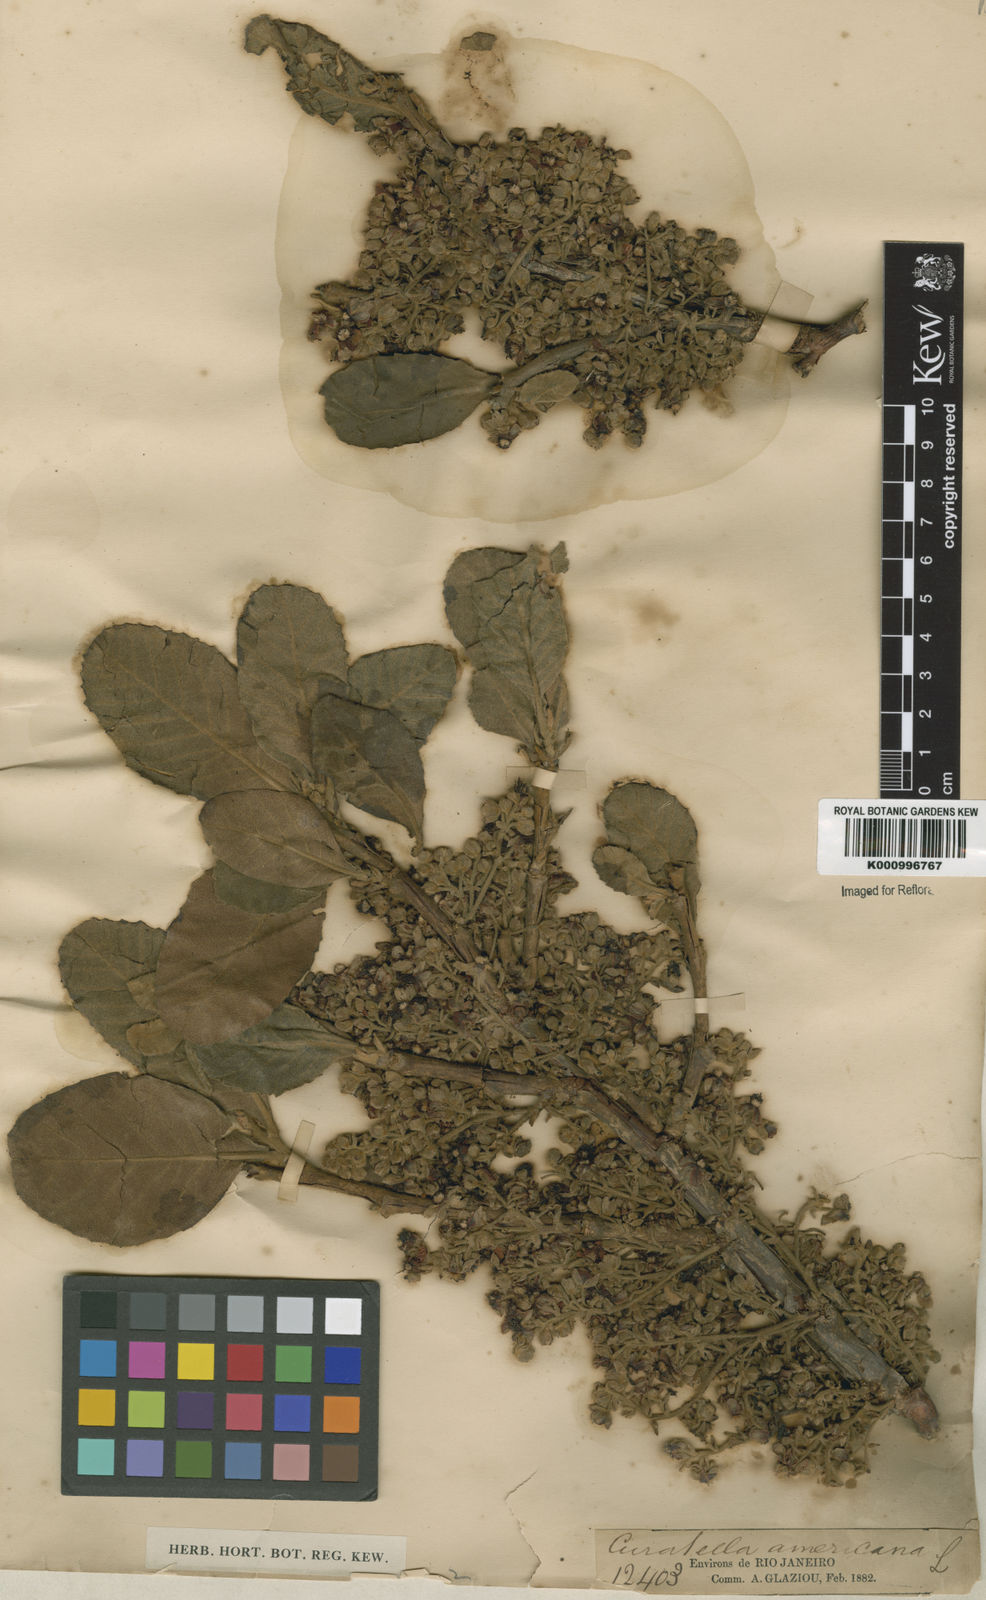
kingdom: Plantae
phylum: Tracheophyta
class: Magnoliopsida
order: Dilleniales
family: Dilleniaceae
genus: Curatella
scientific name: Curatella americana
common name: Sandpaper tree
